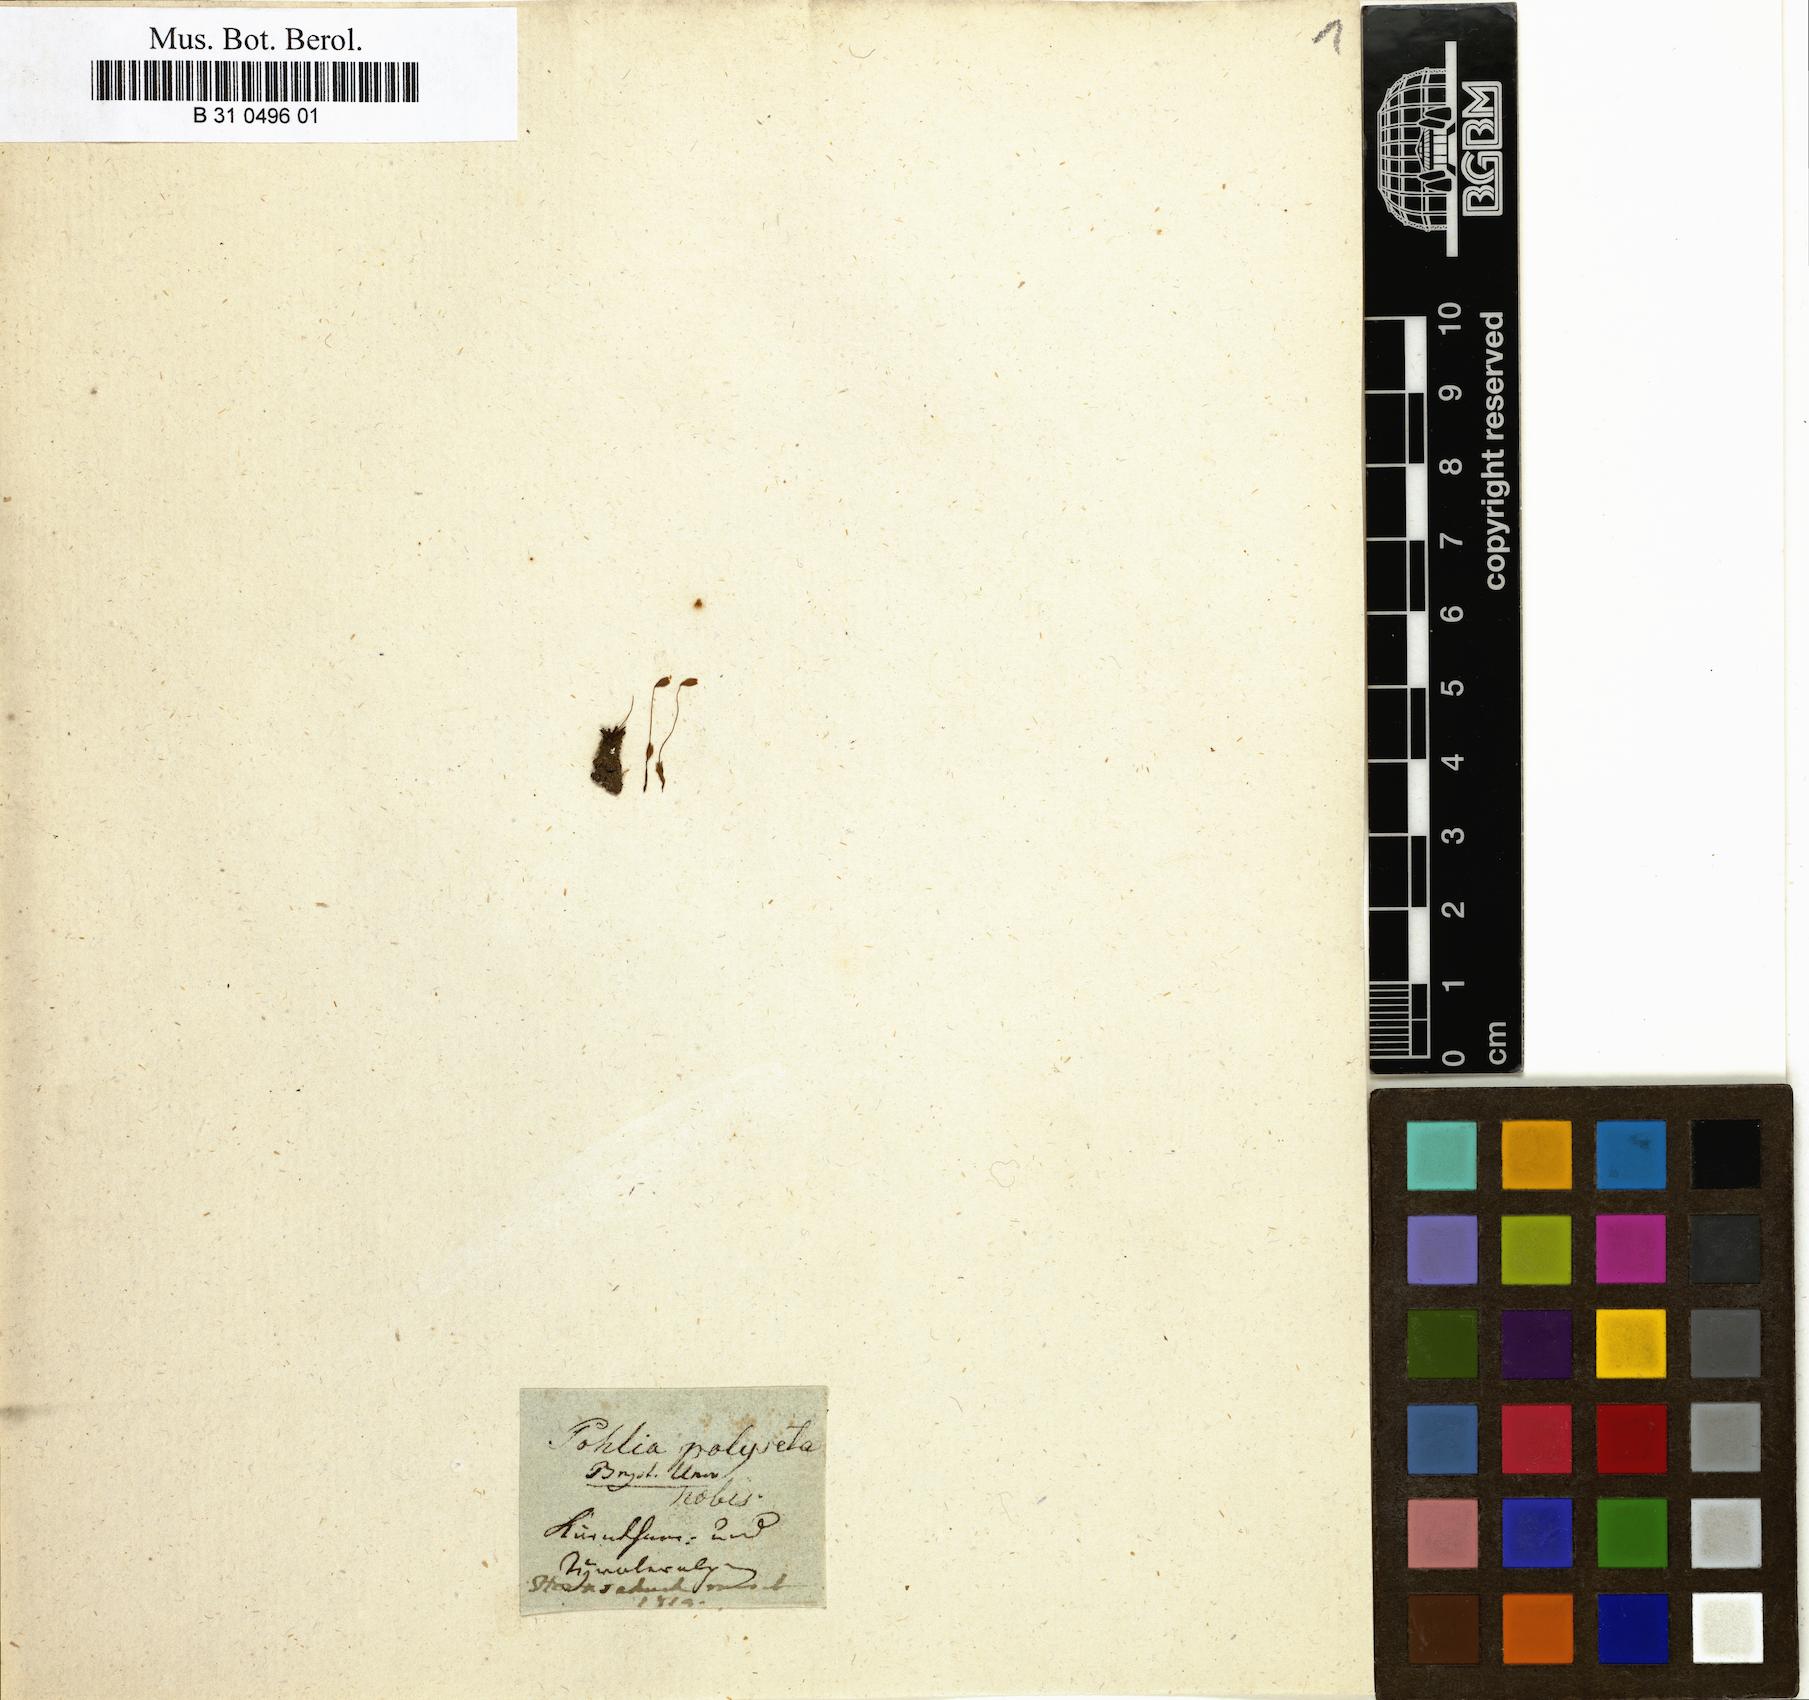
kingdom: Plantae
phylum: Bryophyta
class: Bryopsida
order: Bryales
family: Mniaceae
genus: Pohlia
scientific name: Pohlia elongata
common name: Long-fruited thread-moss
